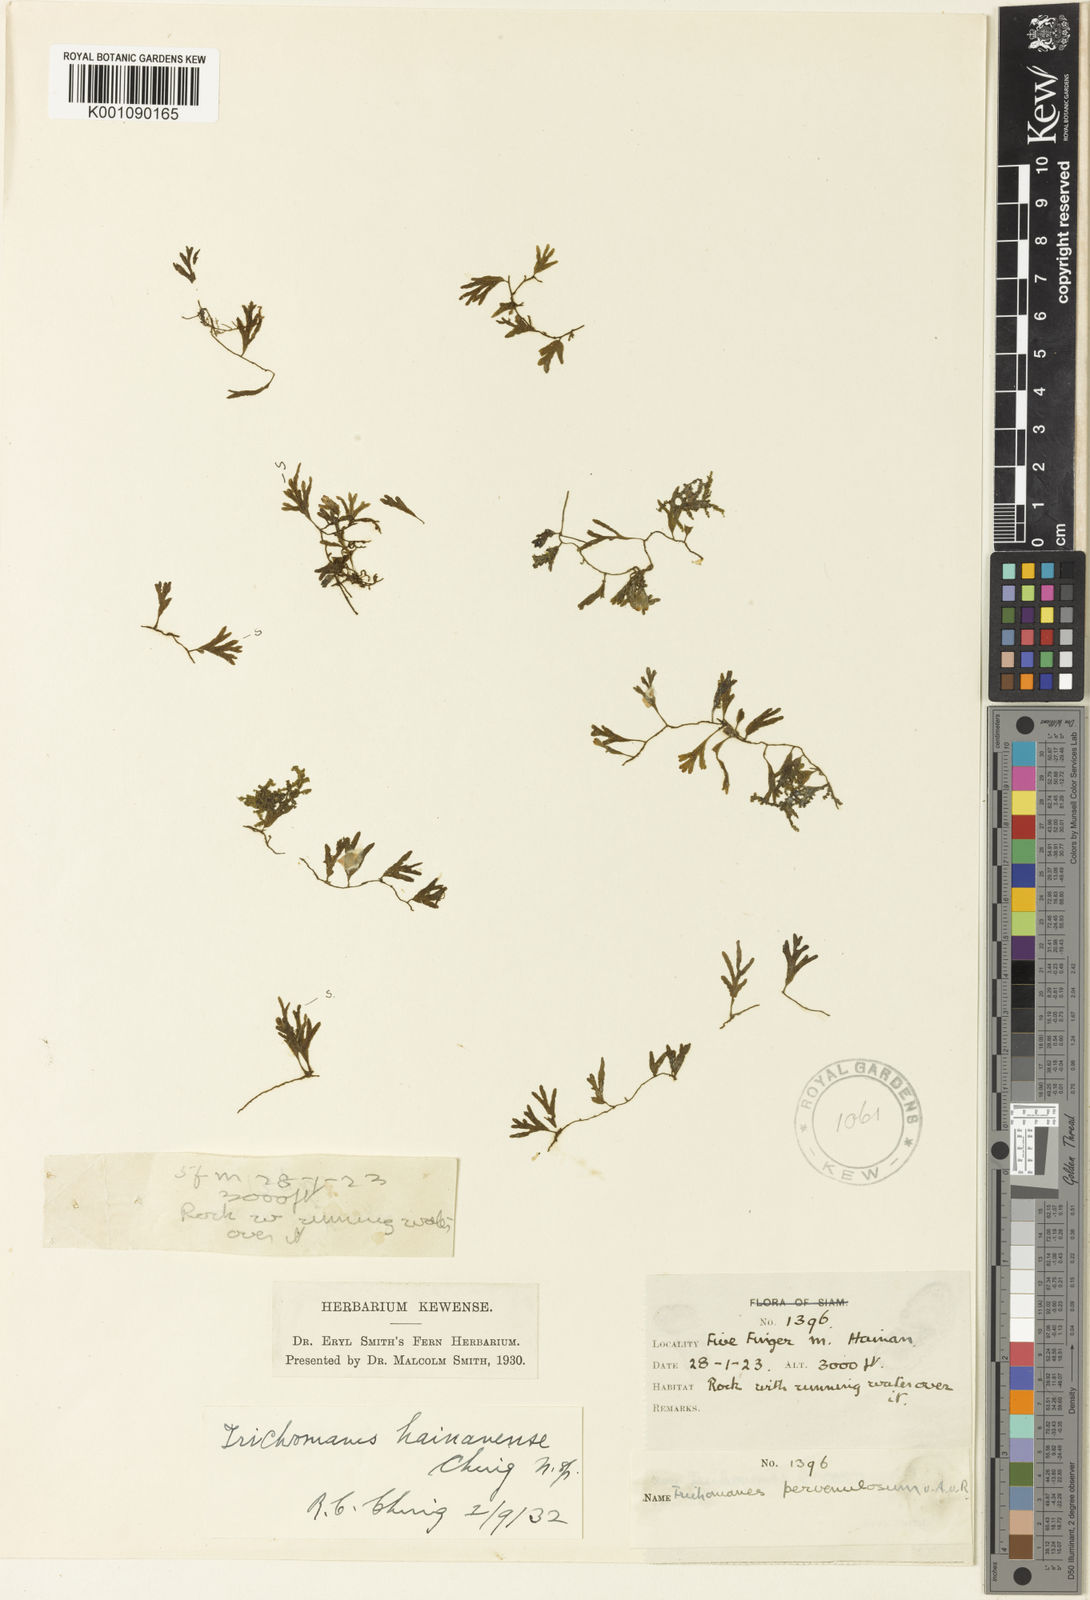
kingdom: Plantae
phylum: Tracheophyta
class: Polypodiopsida
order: Hymenophyllales
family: Hymenophyllaceae
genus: Trichomanes
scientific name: Trichomanes
